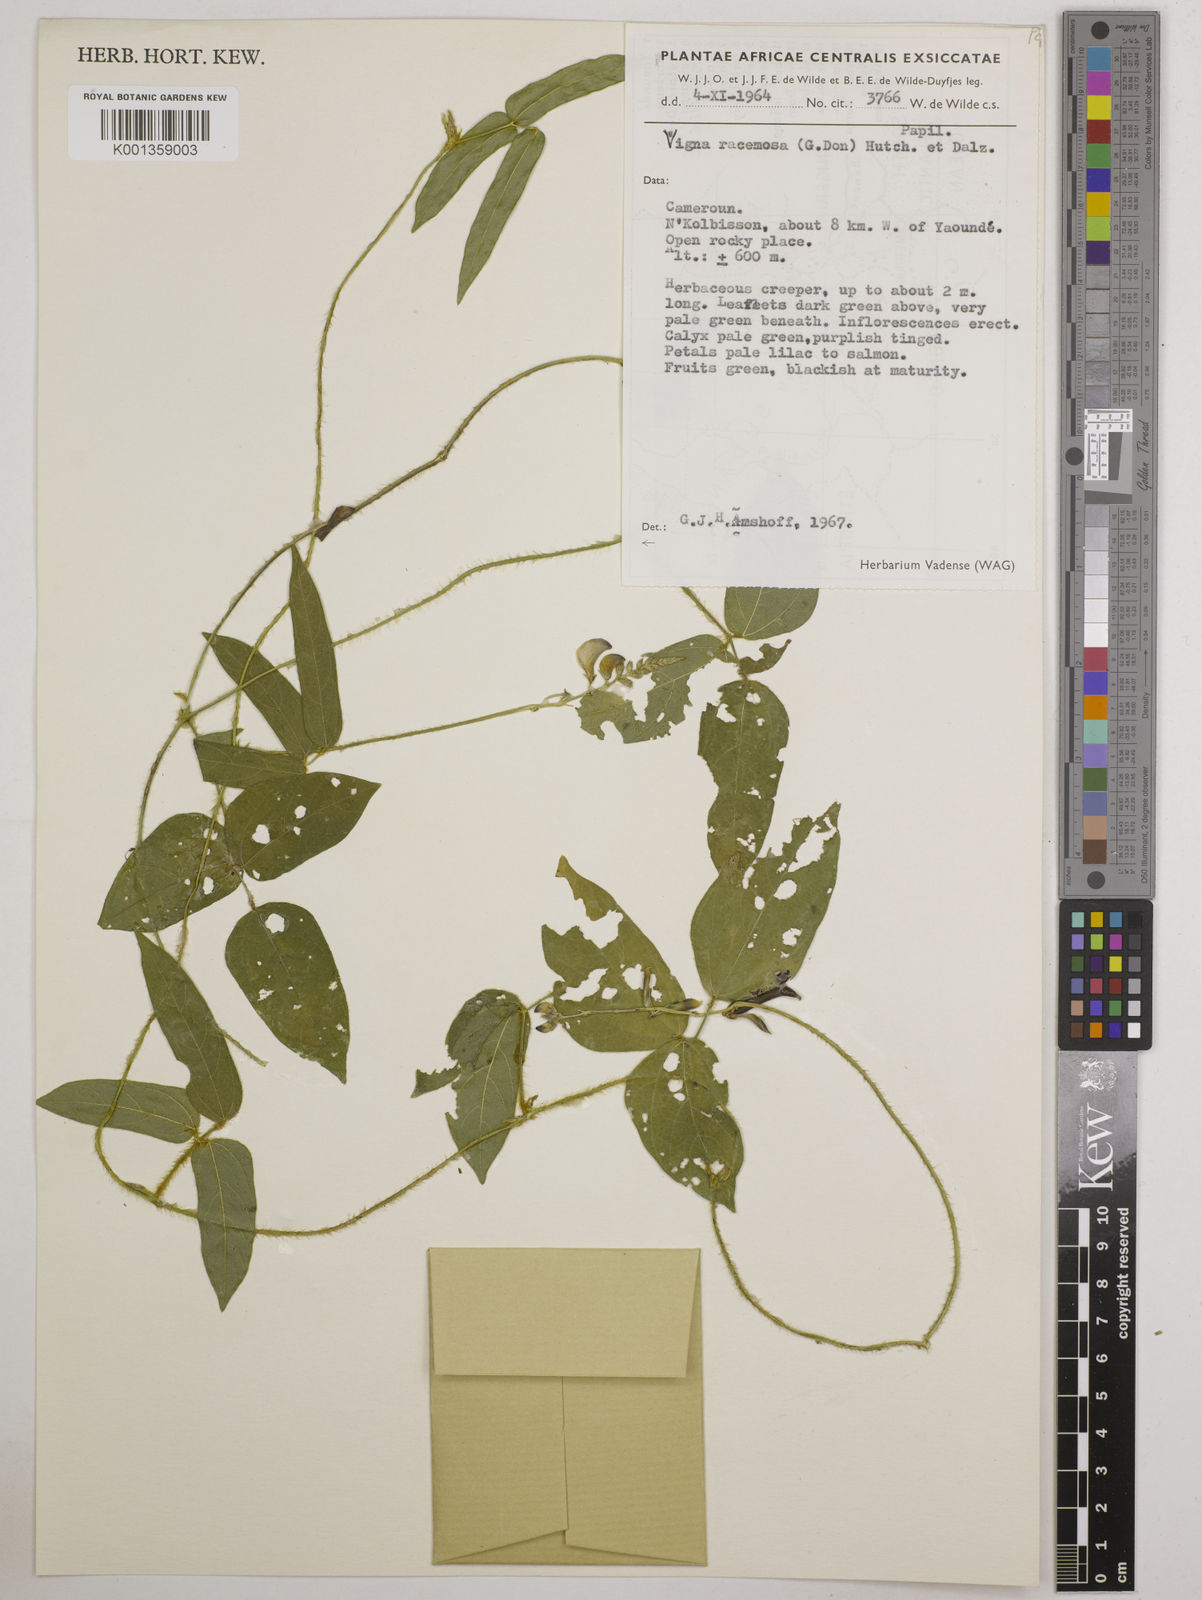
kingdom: Plantae
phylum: Tracheophyta
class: Magnoliopsida
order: Fabales
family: Fabaceae
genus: Vigna
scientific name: Vigna racemosa
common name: Beans not eaten
